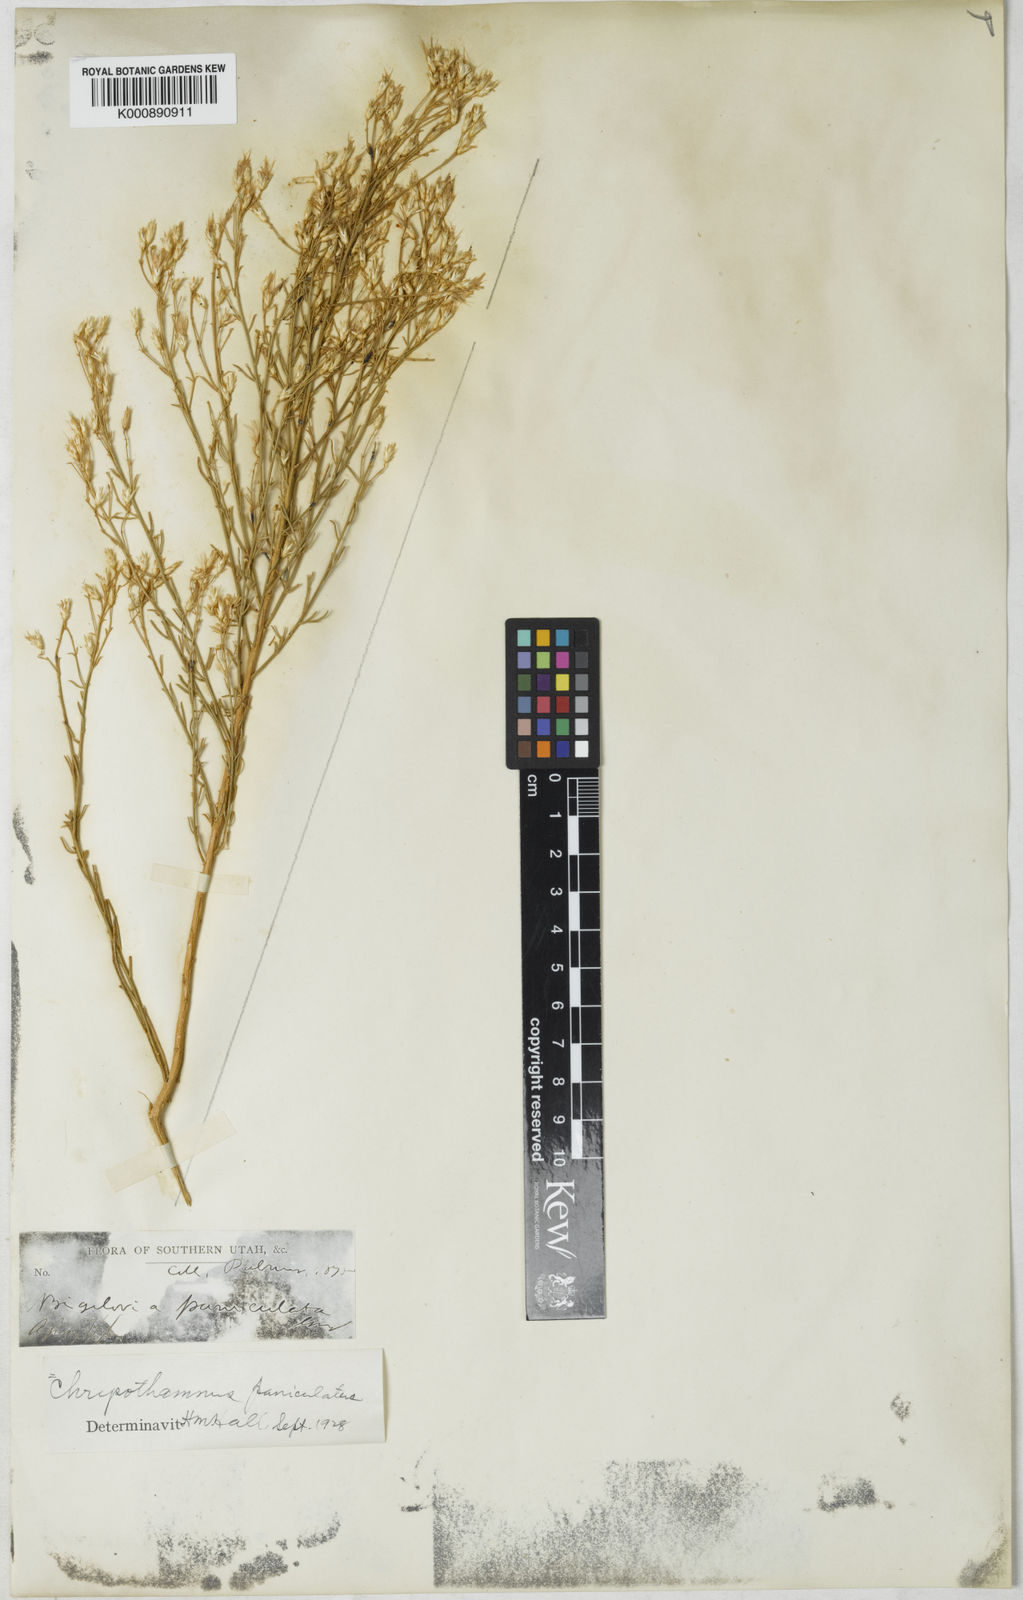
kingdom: Plantae
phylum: Tracheophyta
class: Magnoliopsida
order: Asterales
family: Asteraceae
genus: Ericameria
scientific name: Ericameria paniculata
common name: Punctate rabbitbrush
